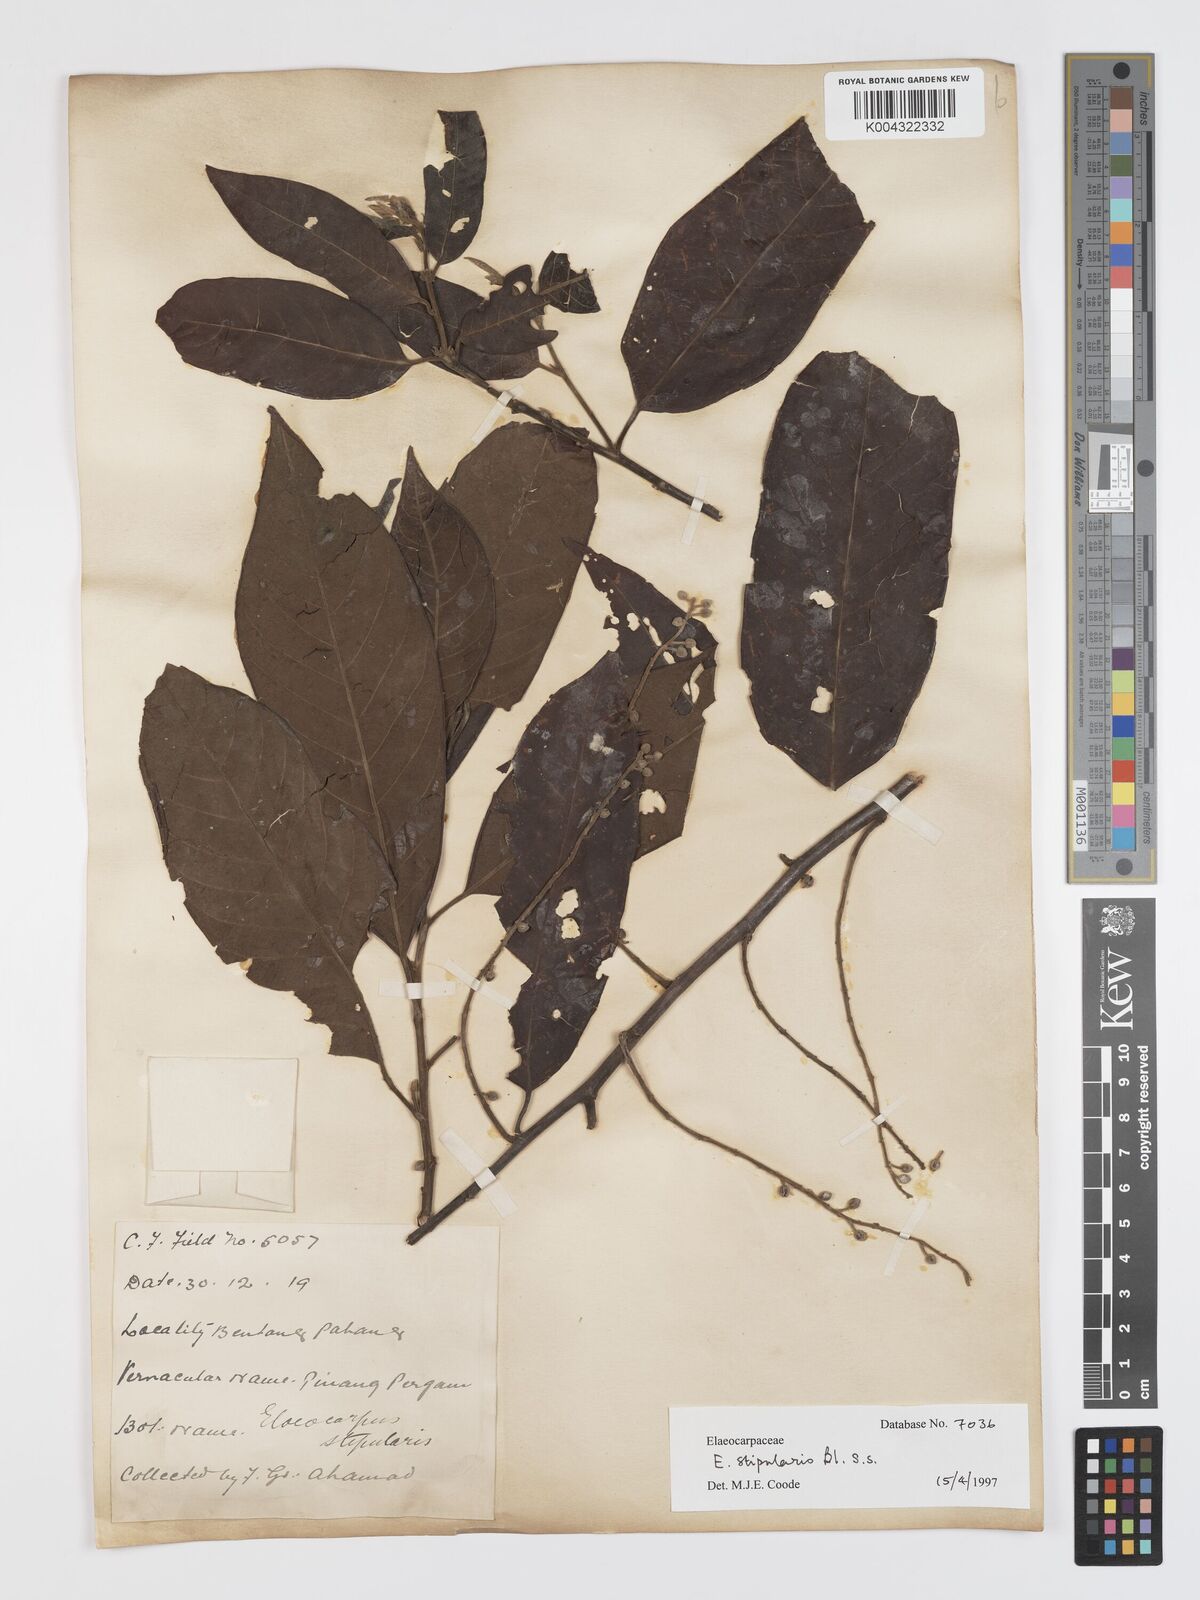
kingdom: Plantae
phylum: Tracheophyta
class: Magnoliopsida
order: Oxalidales
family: Elaeocarpaceae
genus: Elaeocarpus
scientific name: Elaeocarpus stipularis
